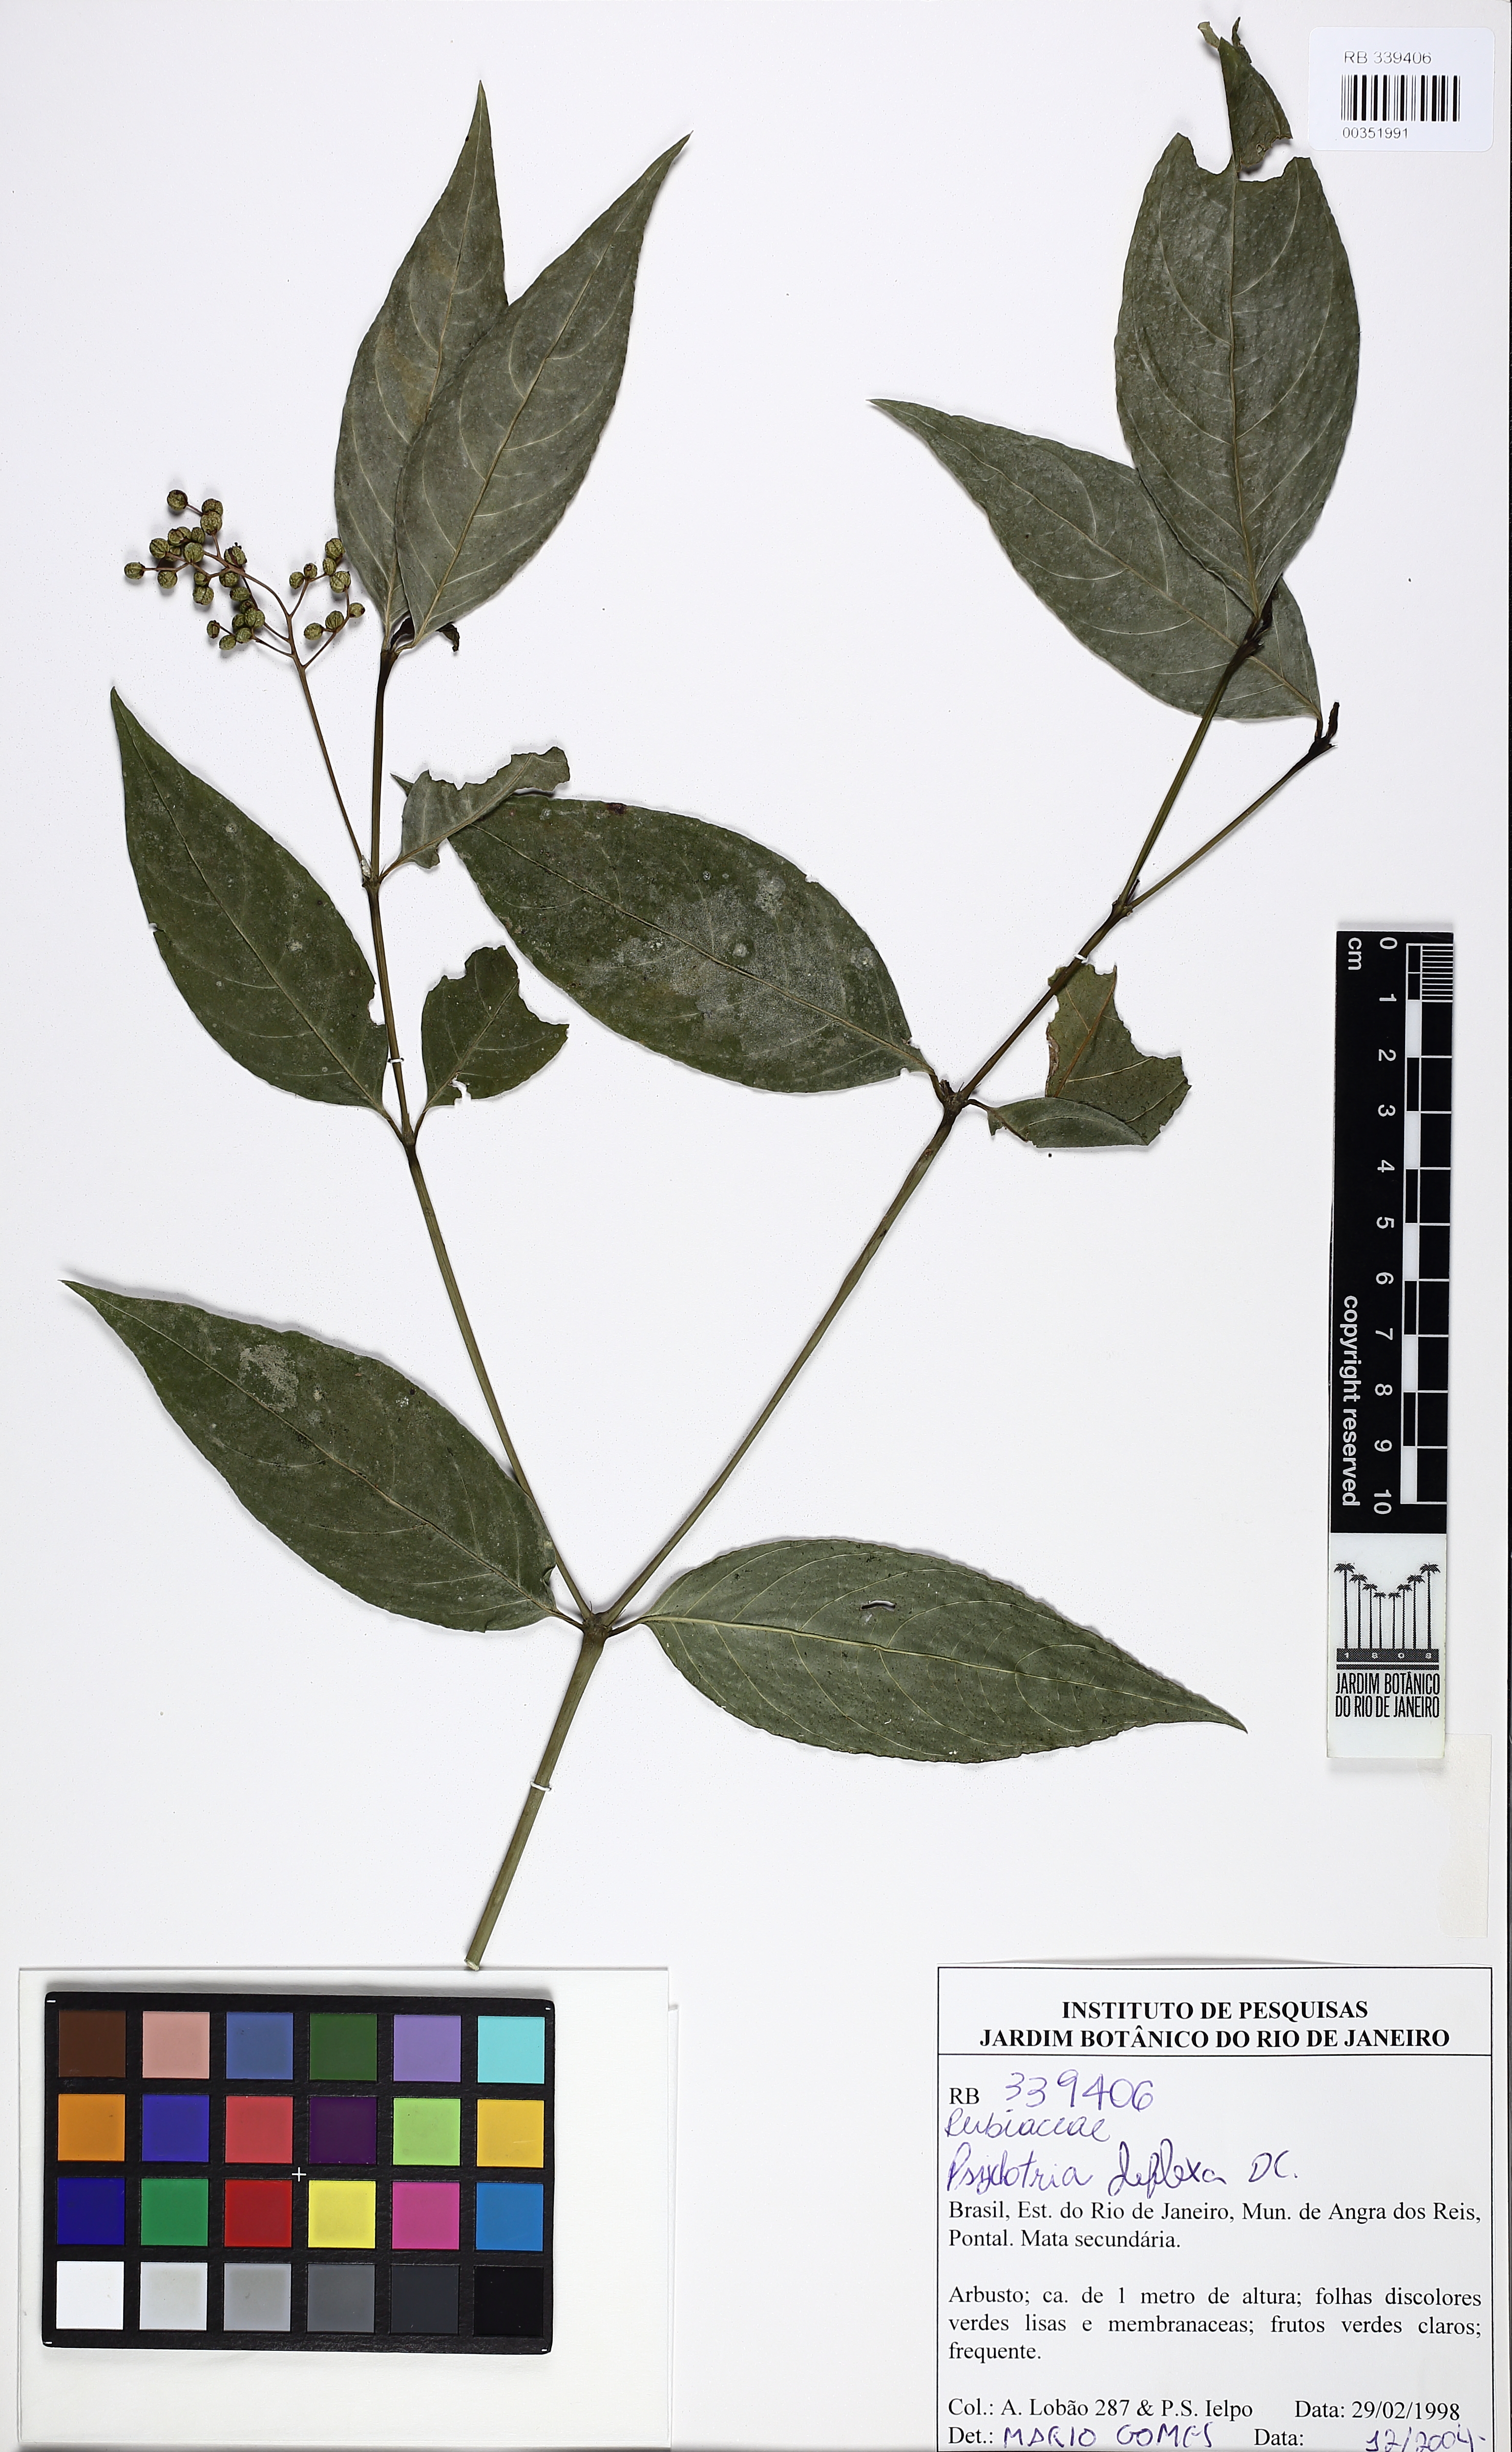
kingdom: Plantae
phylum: Tracheophyta
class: Magnoliopsida
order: Gentianales
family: Rubiaceae
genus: Palicourea
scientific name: Palicourea deflexa
